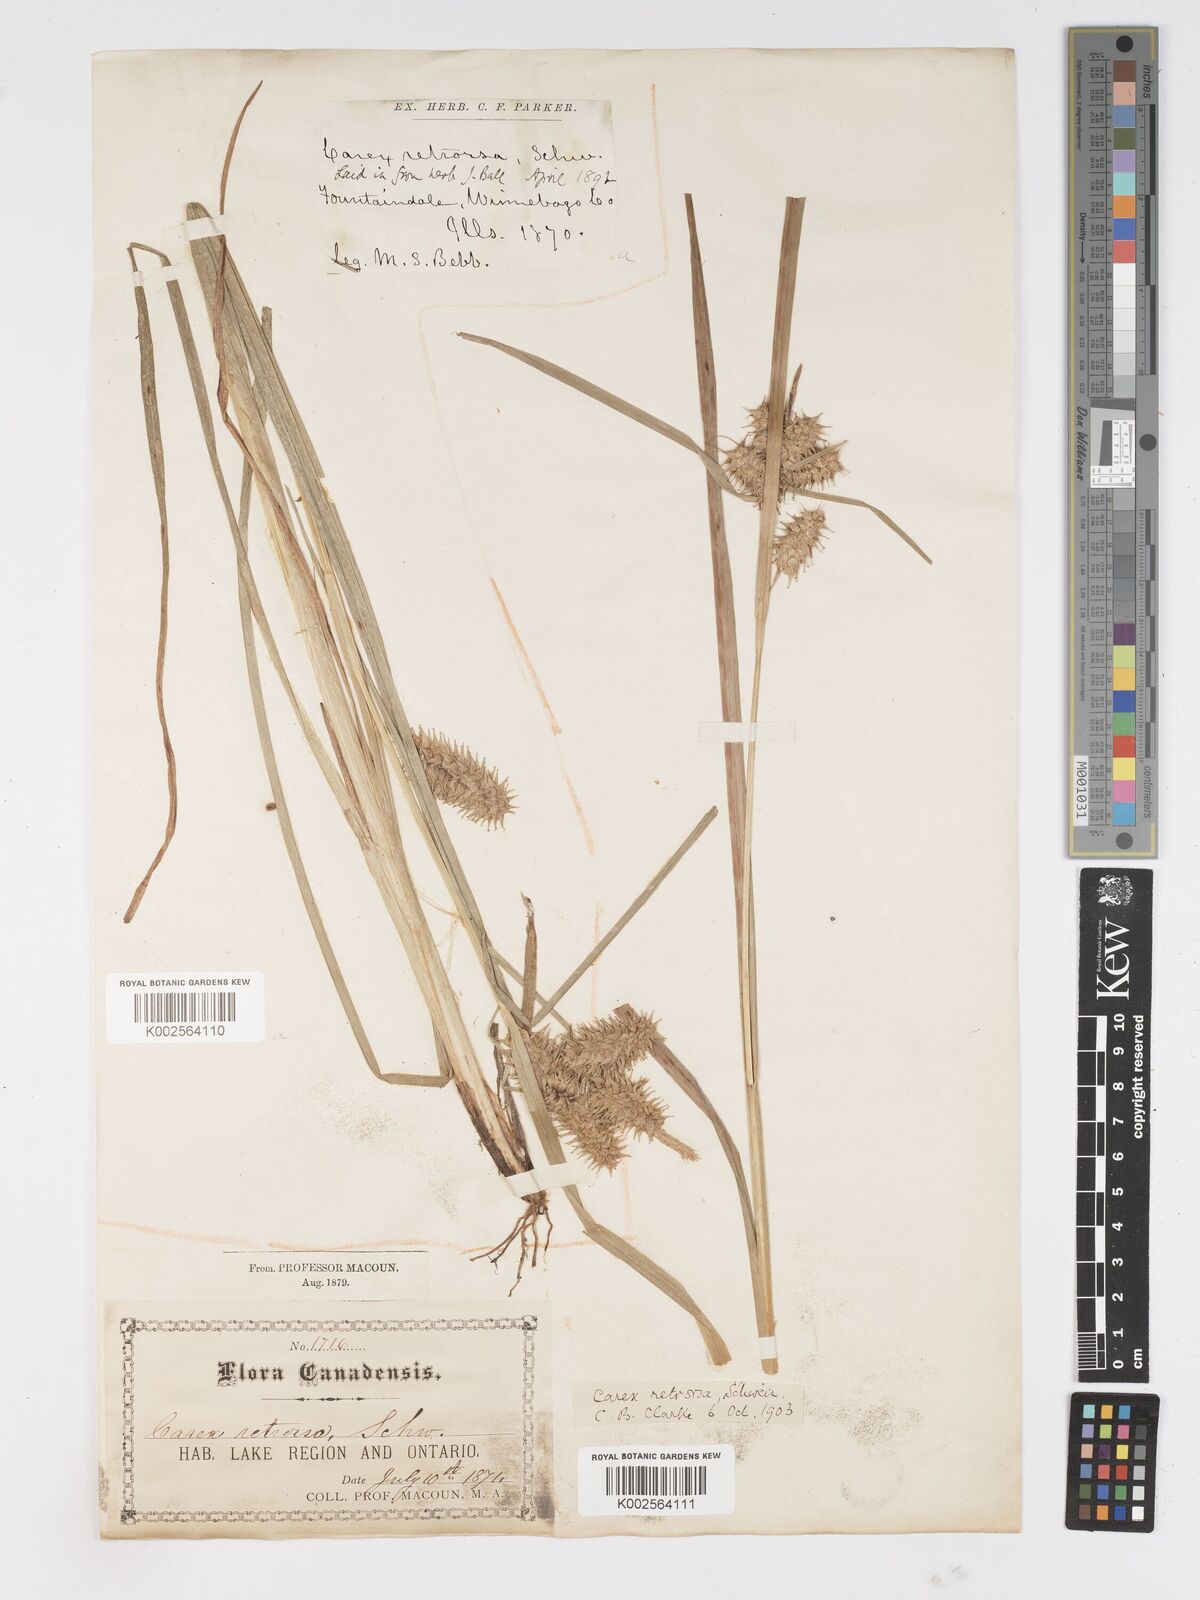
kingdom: Plantae
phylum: Tracheophyta
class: Liliopsida
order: Poales
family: Cyperaceae
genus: Carex
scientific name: Carex retrorsa
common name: Knot-sheath sedge
